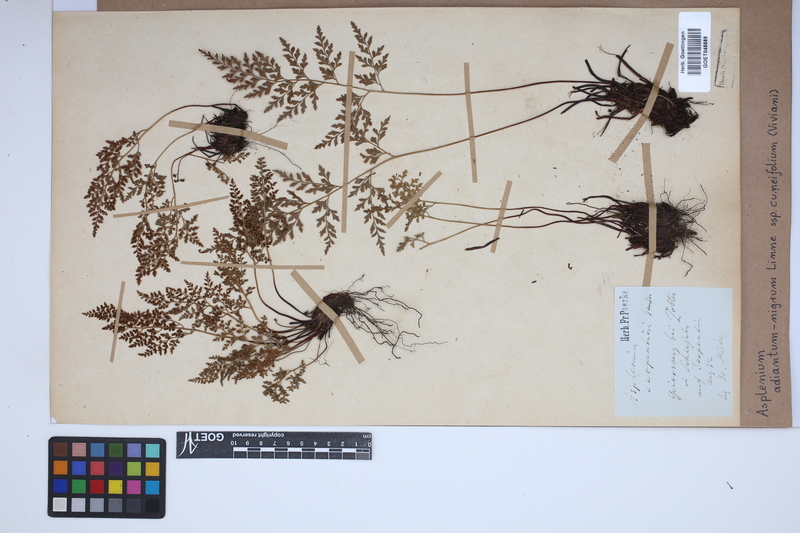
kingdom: Plantae
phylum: Tracheophyta
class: Polypodiopsida
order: Polypodiales
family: Aspleniaceae
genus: Asplenium
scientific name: Asplenium cuneifolium
